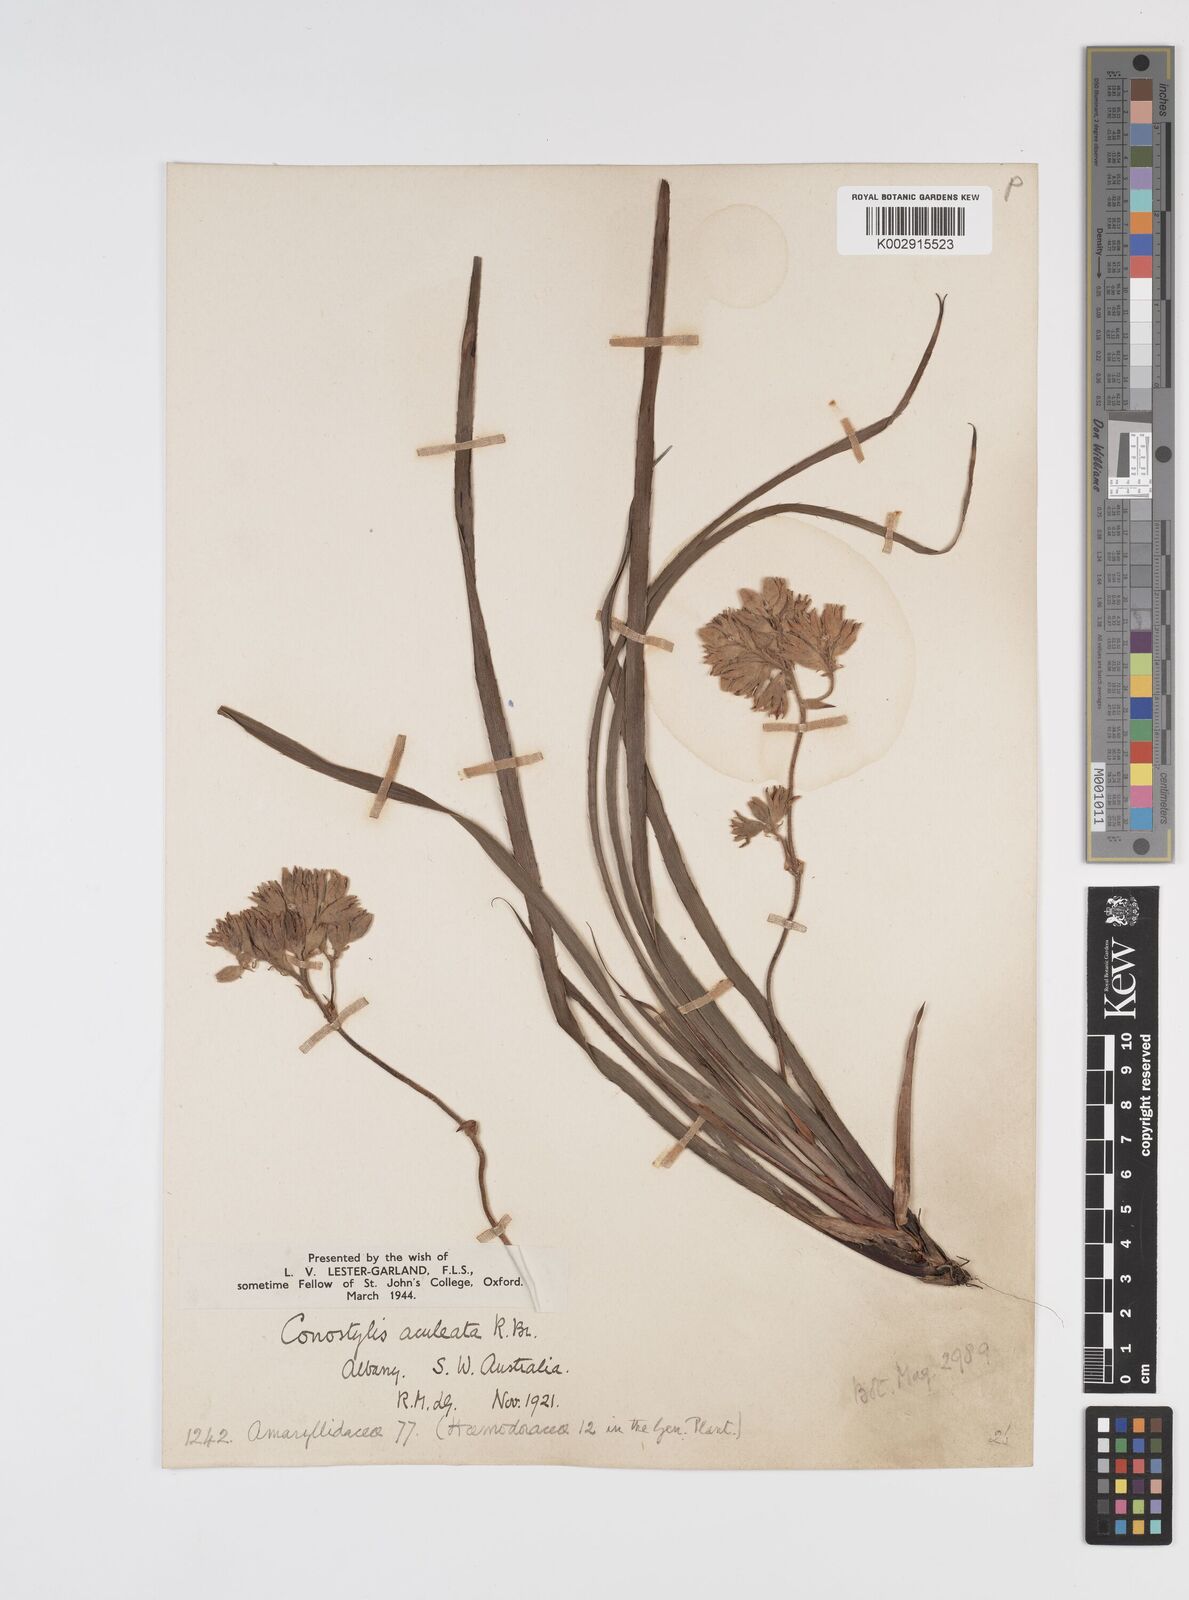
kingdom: Plantae
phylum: Tracheophyta
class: Liliopsida
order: Commelinales
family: Haemodoraceae
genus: Conostylis
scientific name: Conostylis aculeata
